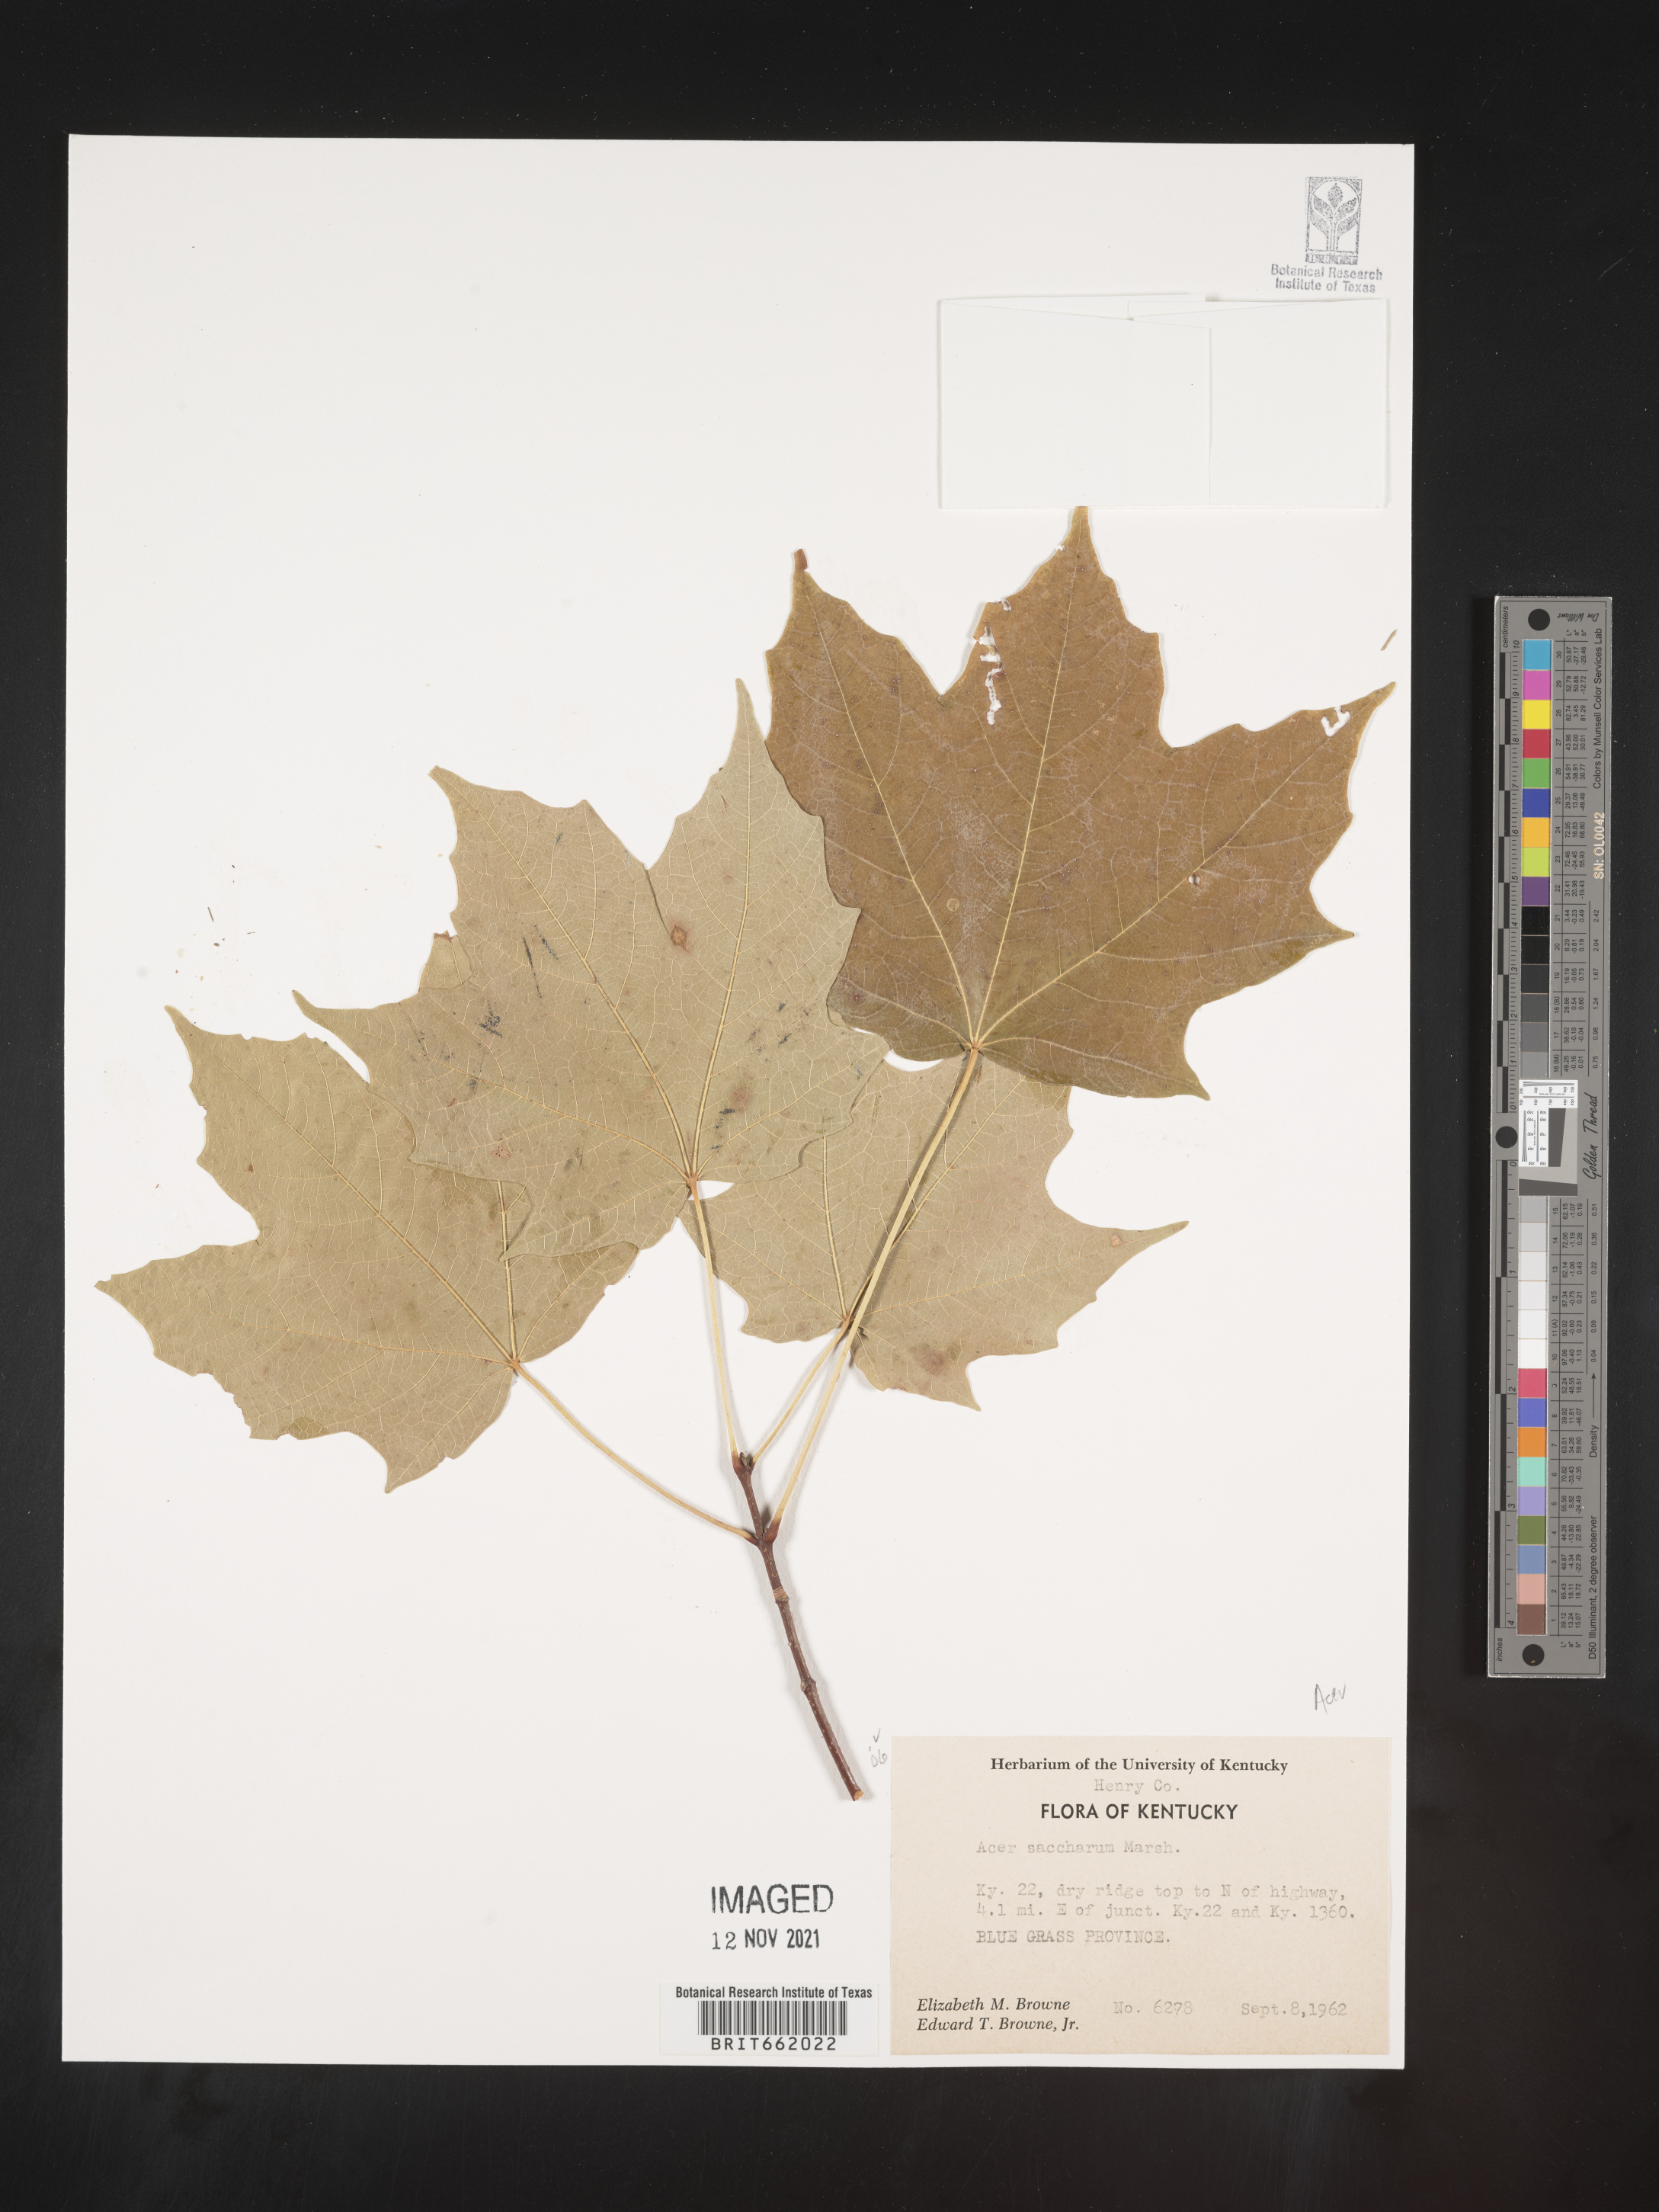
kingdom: Plantae
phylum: Tracheophyta
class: Magnoliopsida
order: Sapindales
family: Sapindaceae
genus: Acer
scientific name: Acer saccharum
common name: Sugar maple
